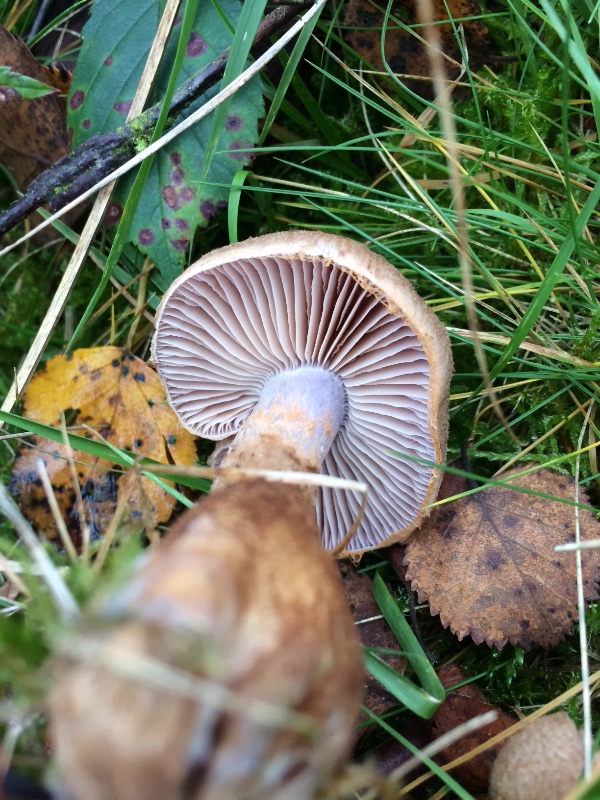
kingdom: Fungi
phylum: Basidiomycota
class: Agaricomycetes
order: Agaricales
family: Cortinariaceae
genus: Cortinarius
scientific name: Cortinarius pholideus
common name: brunskællet slørhat
